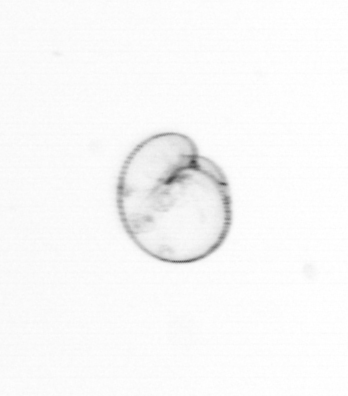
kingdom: Chromista
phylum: Myzozoa
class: Dinophyceae
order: Noctilucales
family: Noctilucaceae
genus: Noctiluca
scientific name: Noctiluca scintillans
